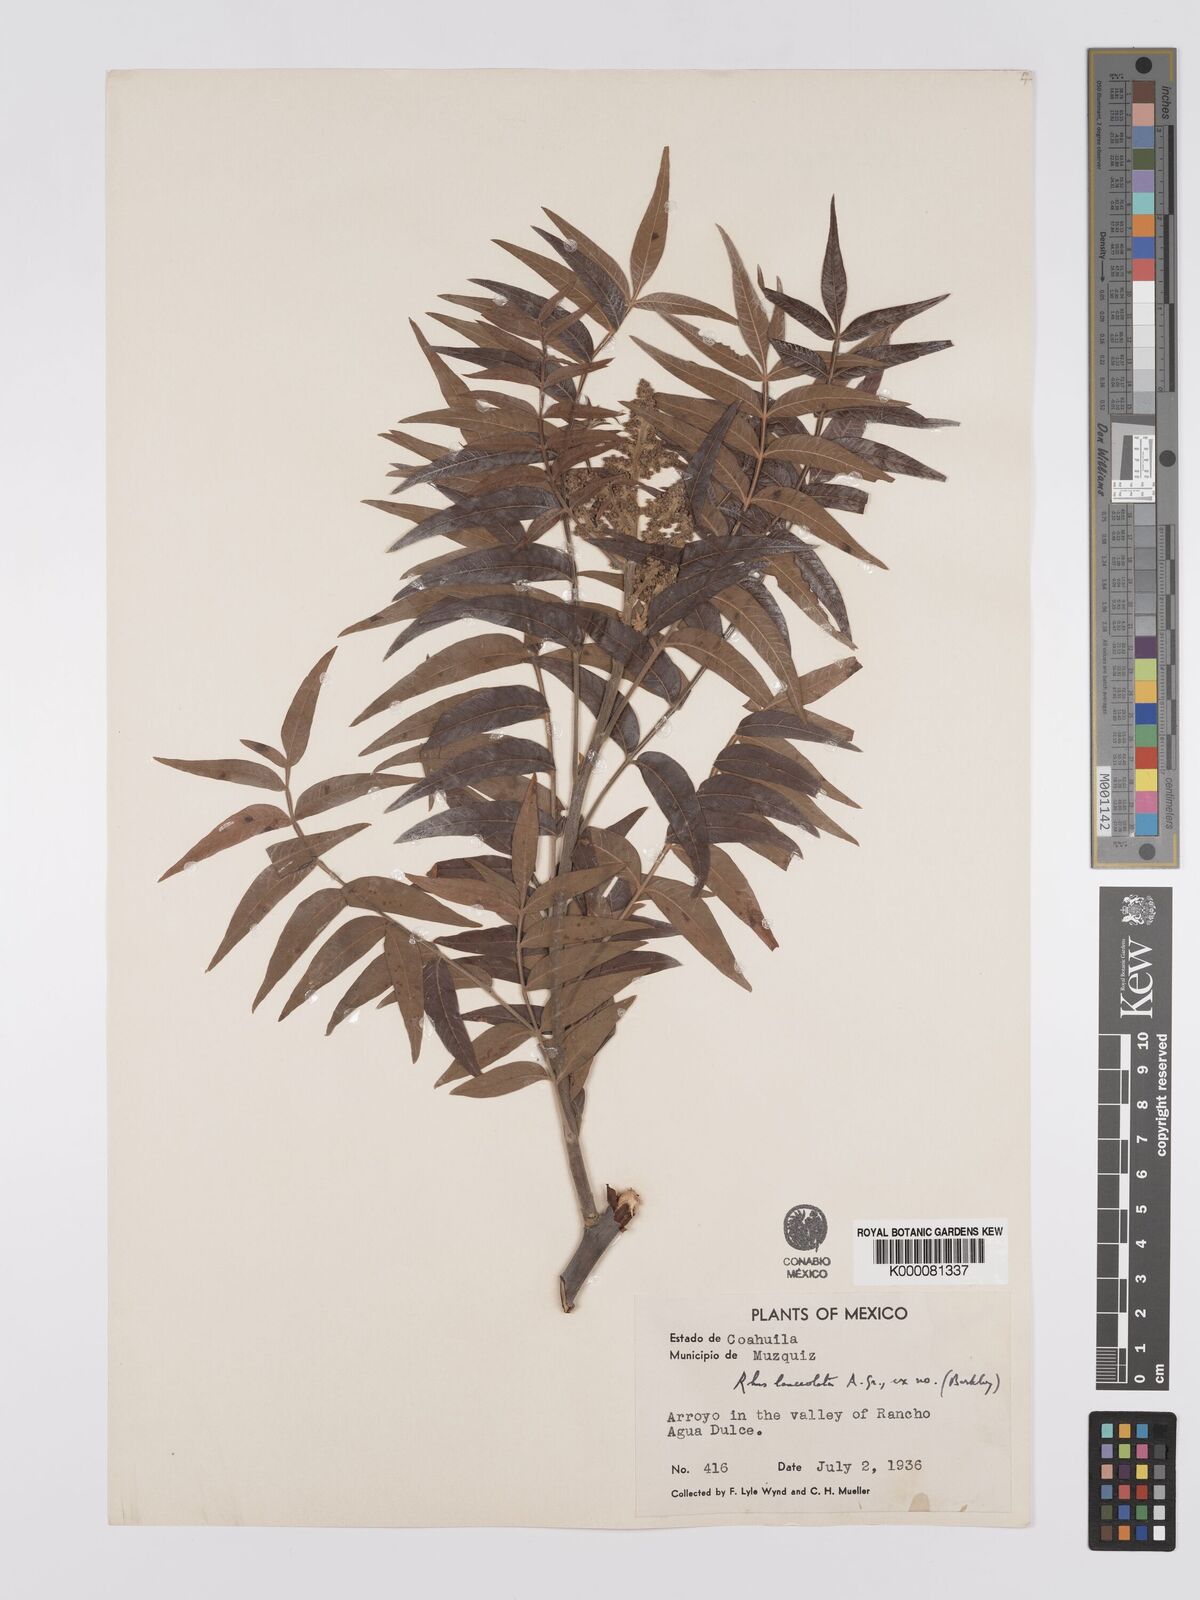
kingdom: Plantae
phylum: Tracheophyta
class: Magnoliopsida
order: Sapindales
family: Anacardiaceae
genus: Rhus
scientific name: Rhus lanceolata
